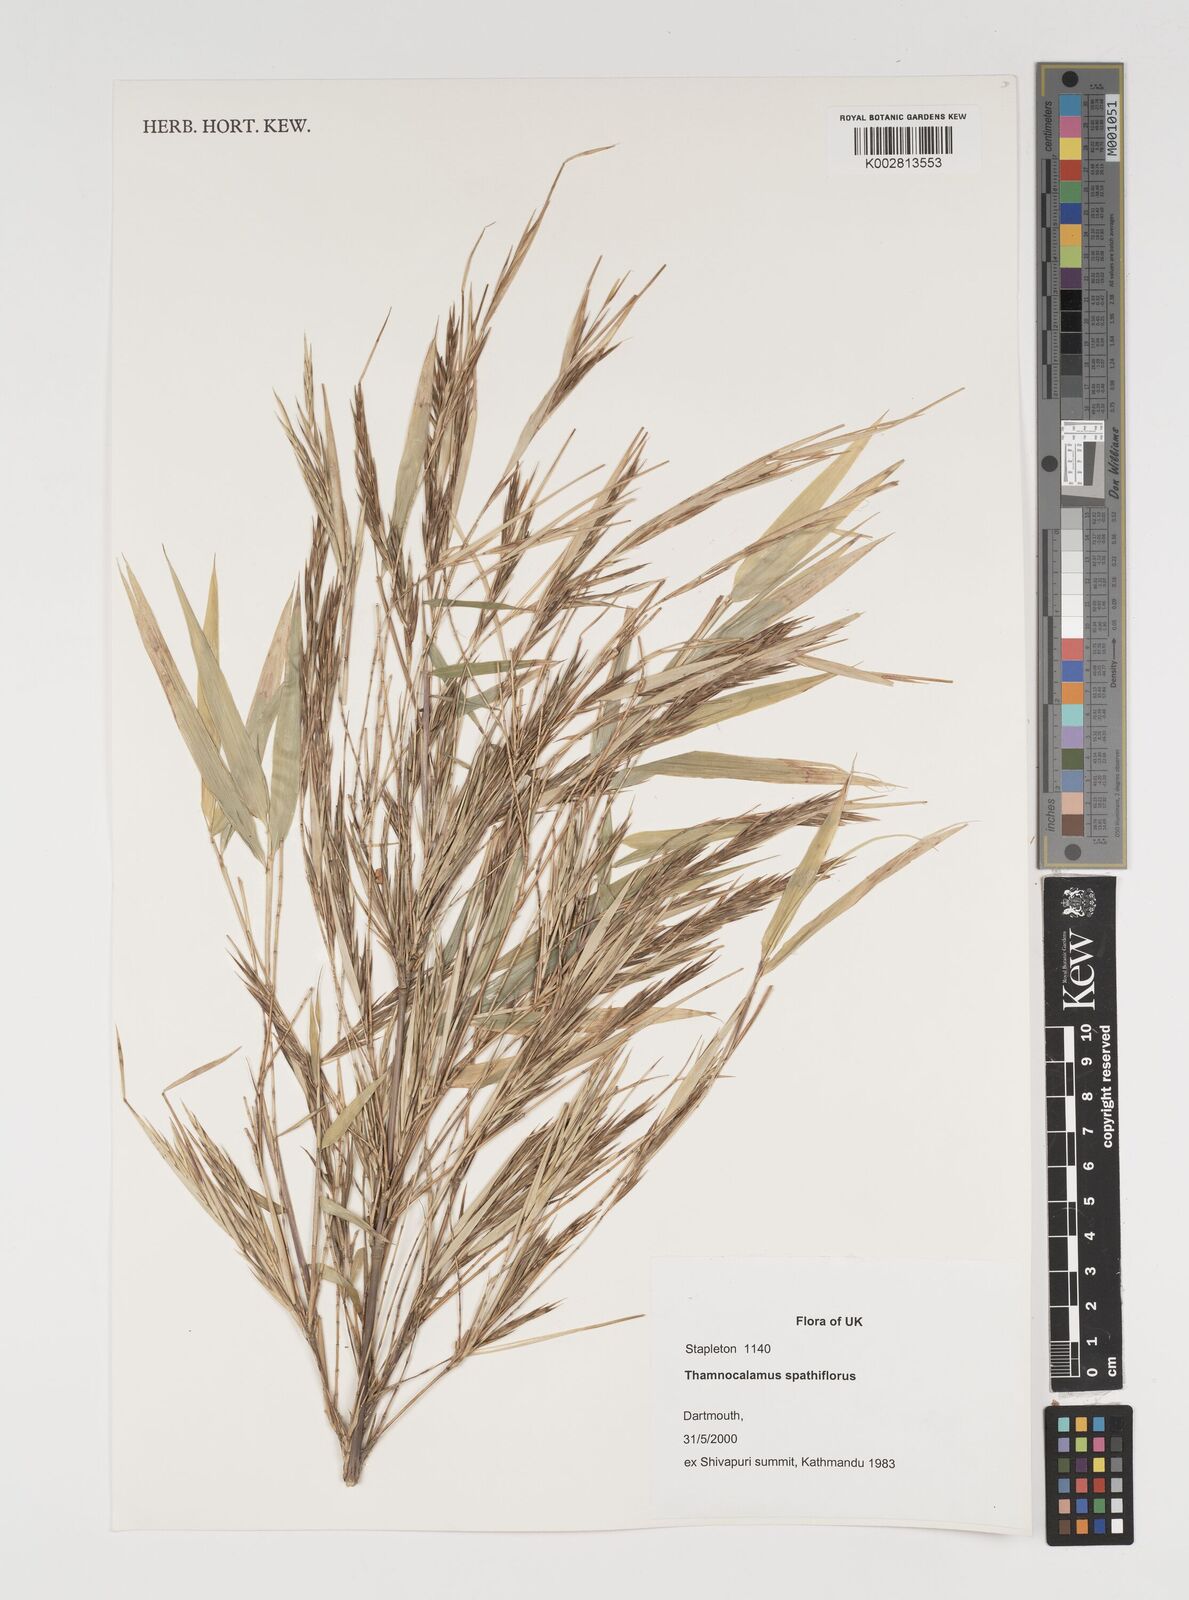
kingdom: Plantae
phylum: Tracheophyta
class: Liliopsida
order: Poales
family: Poaceae
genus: Fargesia
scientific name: Fargesia murielae
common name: Umbrella bamboo
